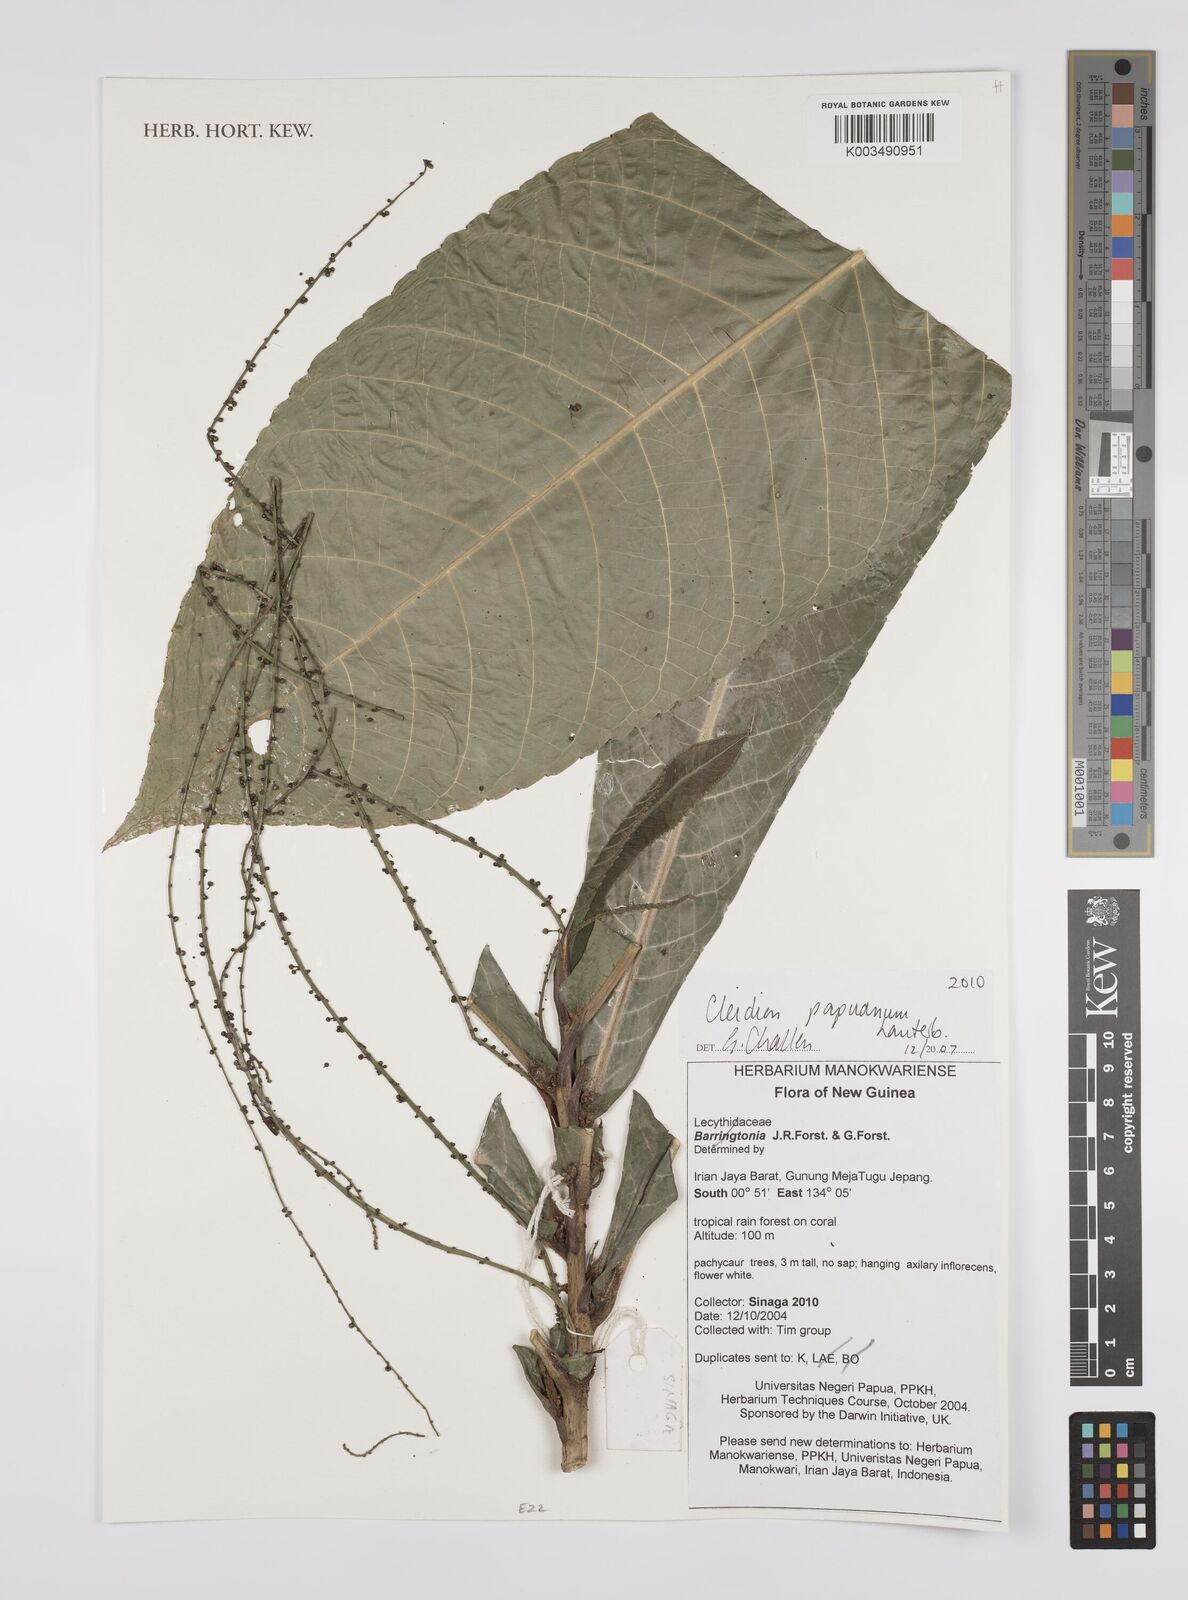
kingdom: Plantae
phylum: Tracheophyta
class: Magnoliopsida
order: Malpighiales
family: Euphorbiaceae
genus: Cleidion
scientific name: Cleidion papuanum
